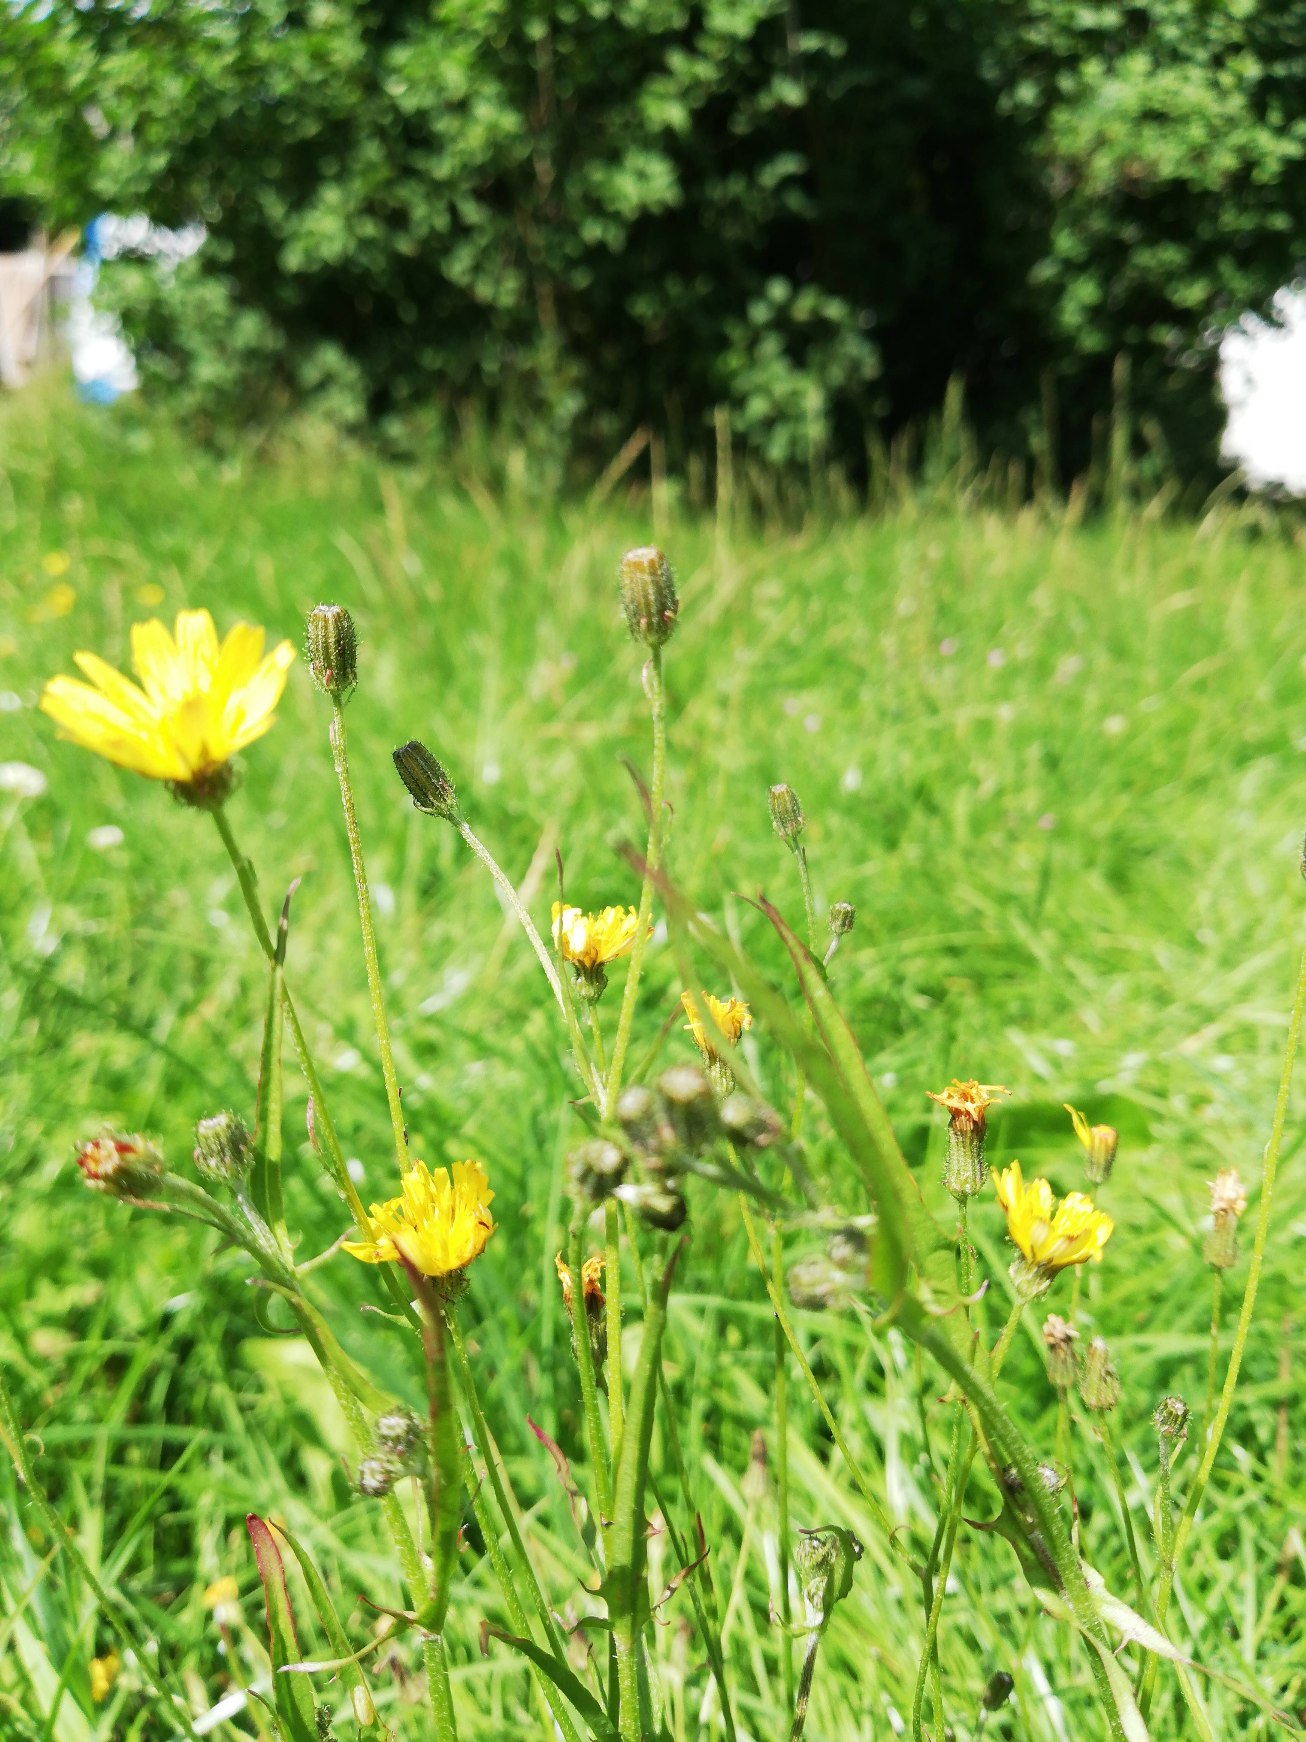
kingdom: Plantae
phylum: Tracheophyta
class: Magnoliopsida
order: Asterales
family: Asteraceae
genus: Crepis
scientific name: Crepis capillaris
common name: Grøn høgeskæg
